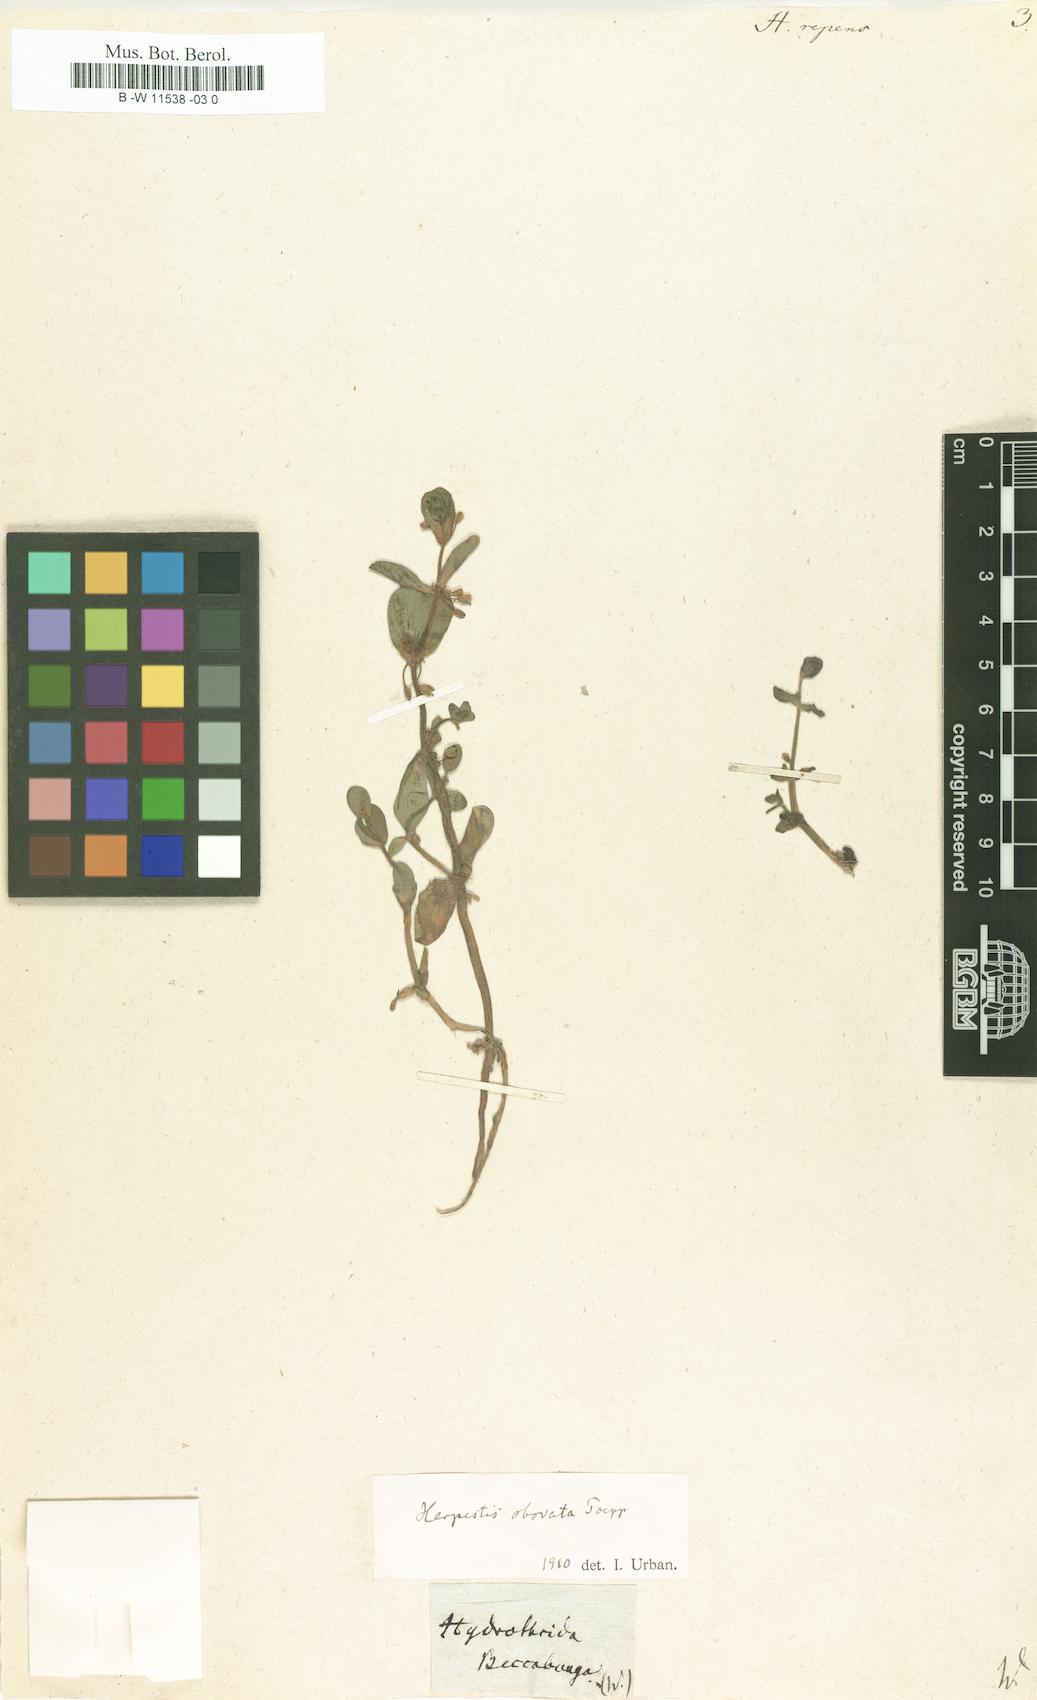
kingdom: Plantae
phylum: Tracheophyta
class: Magnoliopsida
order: Lamiales
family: Plantaginaceae
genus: Bacopa
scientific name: Bacopa reptans
